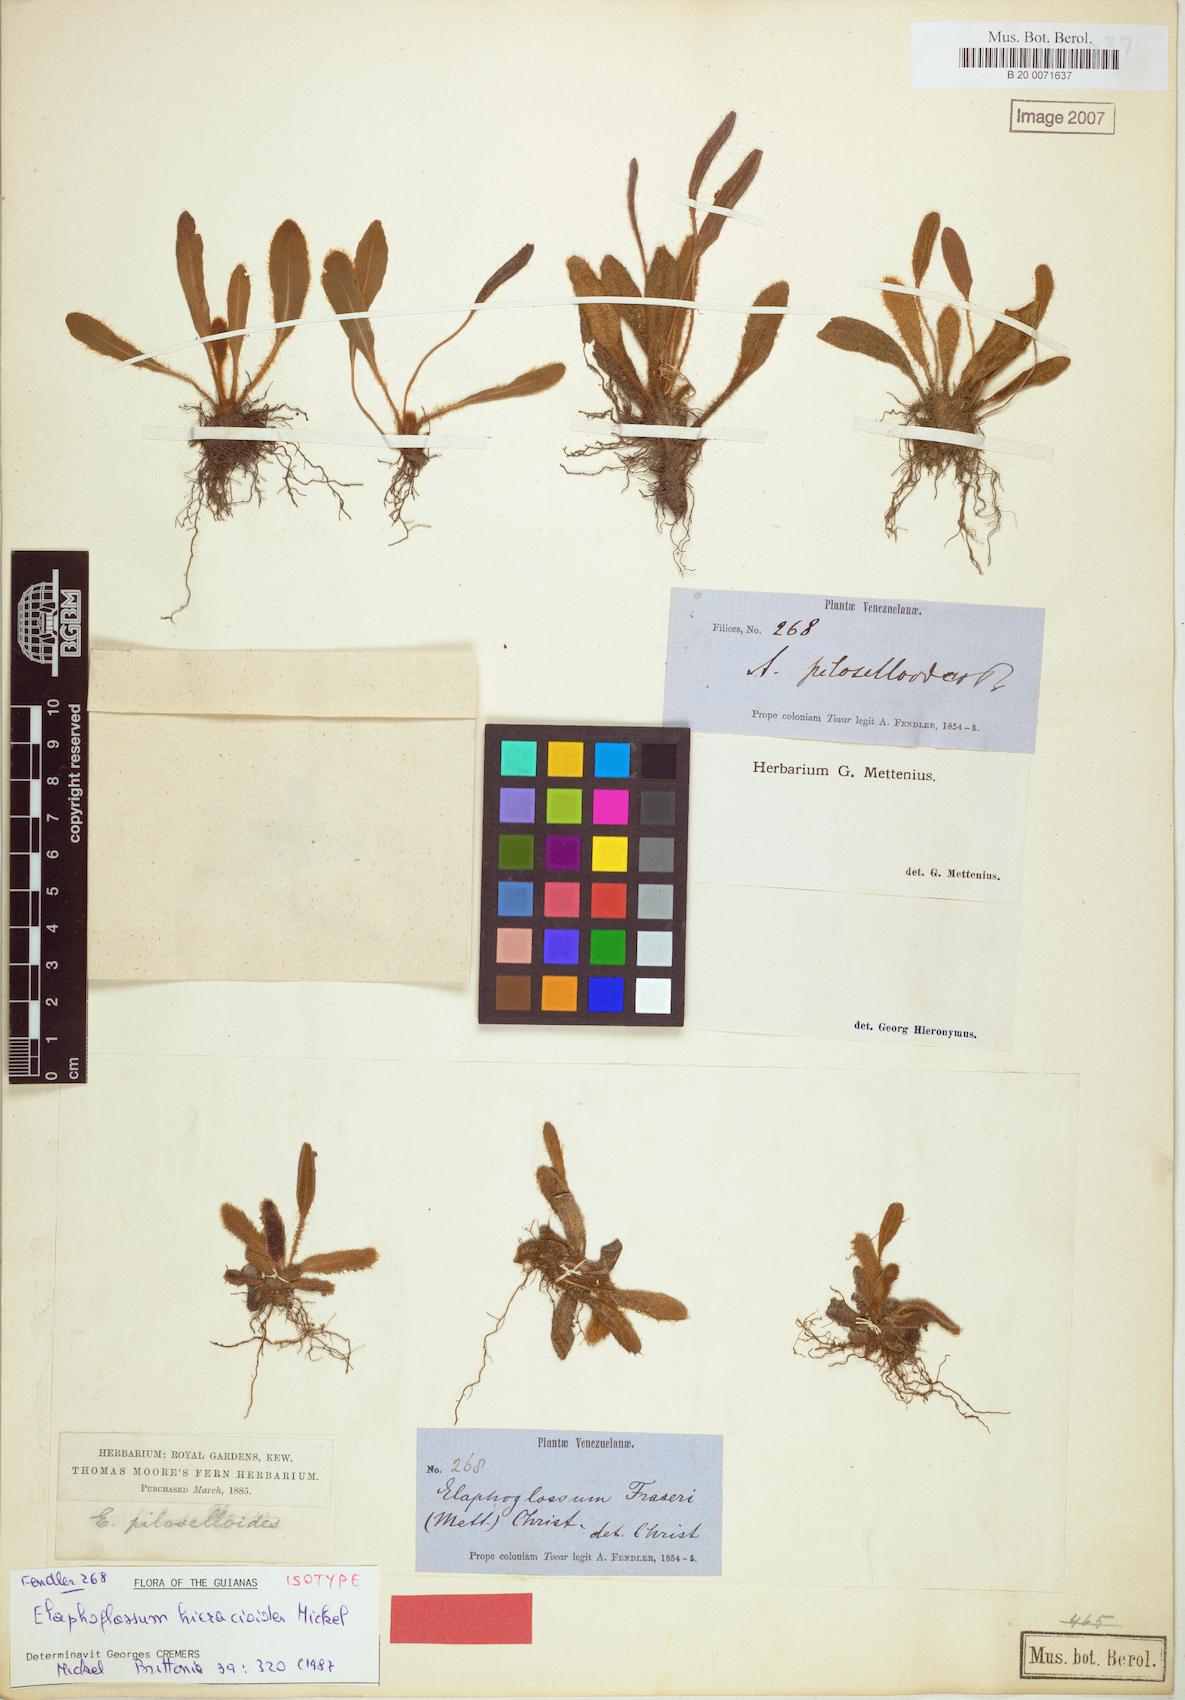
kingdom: Plantae
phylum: Tracheophyta
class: Polypodiopsida
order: Polypodiales
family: Dryopteridaceae
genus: Elaphoglossum
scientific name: Elaphoglossum hieracioides
